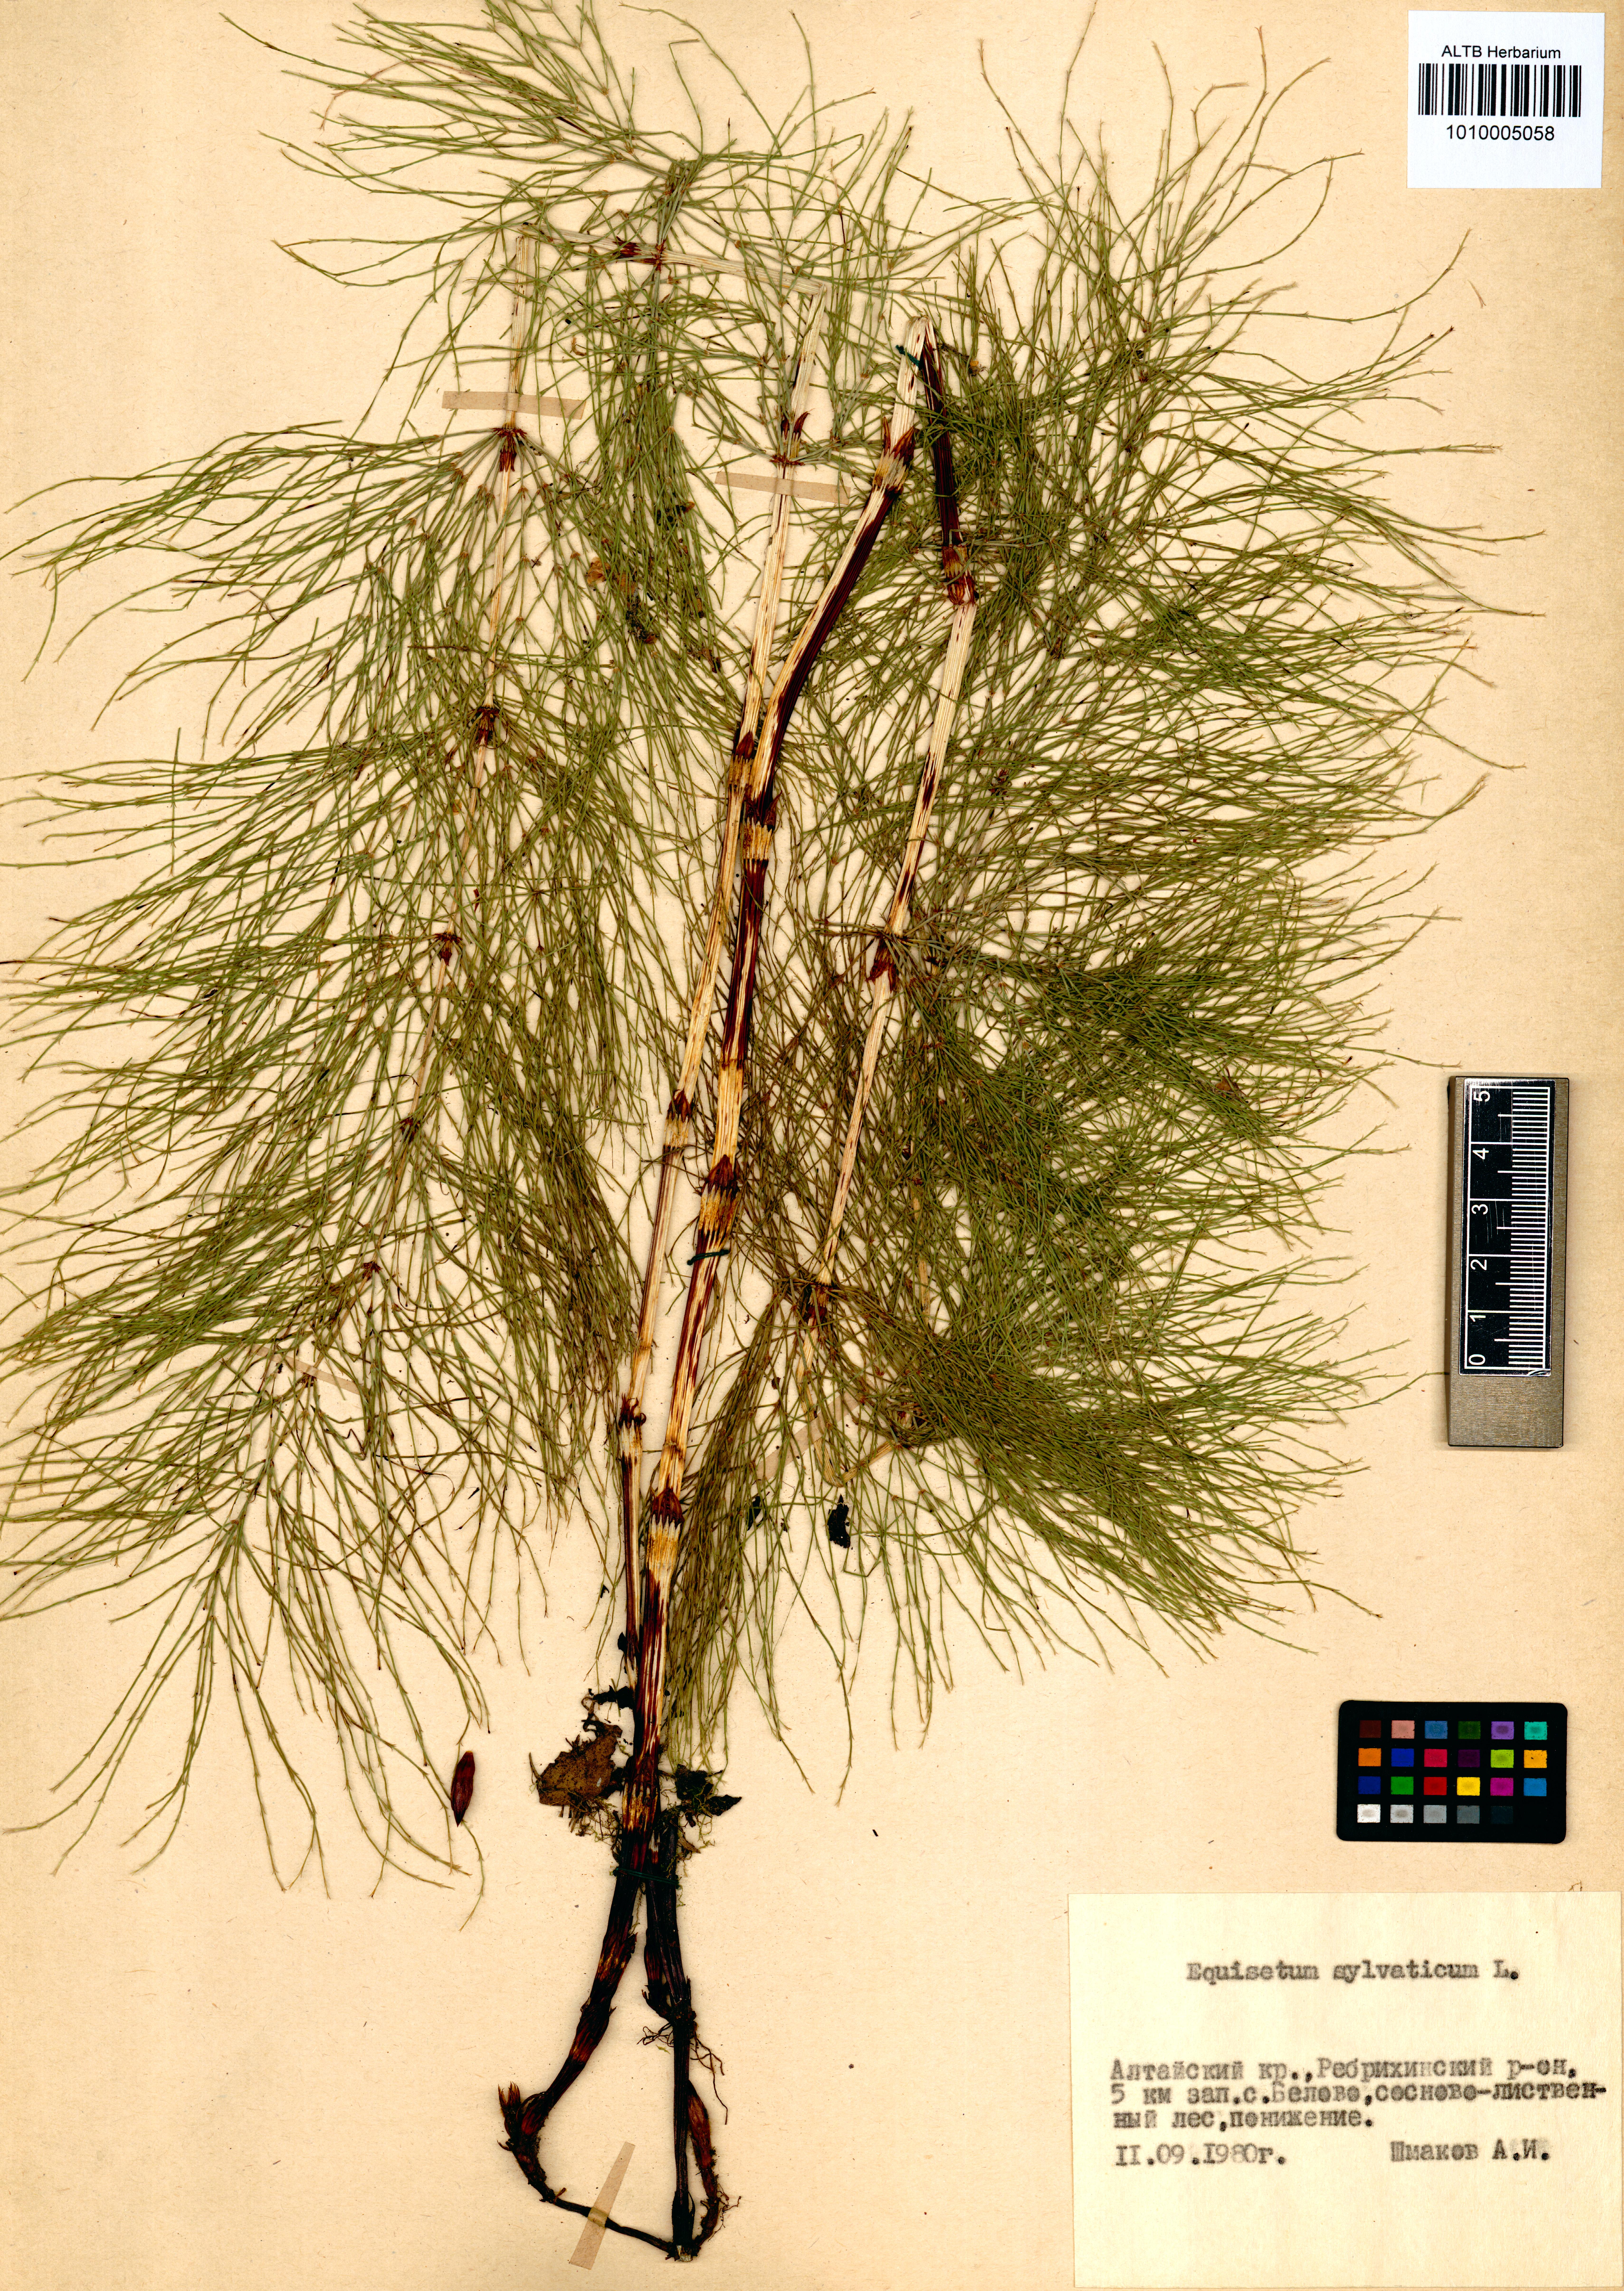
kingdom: Plantae
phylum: Tracheophyta
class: Polypodiopsida
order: Equisetales
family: Equisetaceae
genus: Equisetum
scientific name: Equisetum sylvaticum
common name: Wood horsetail
